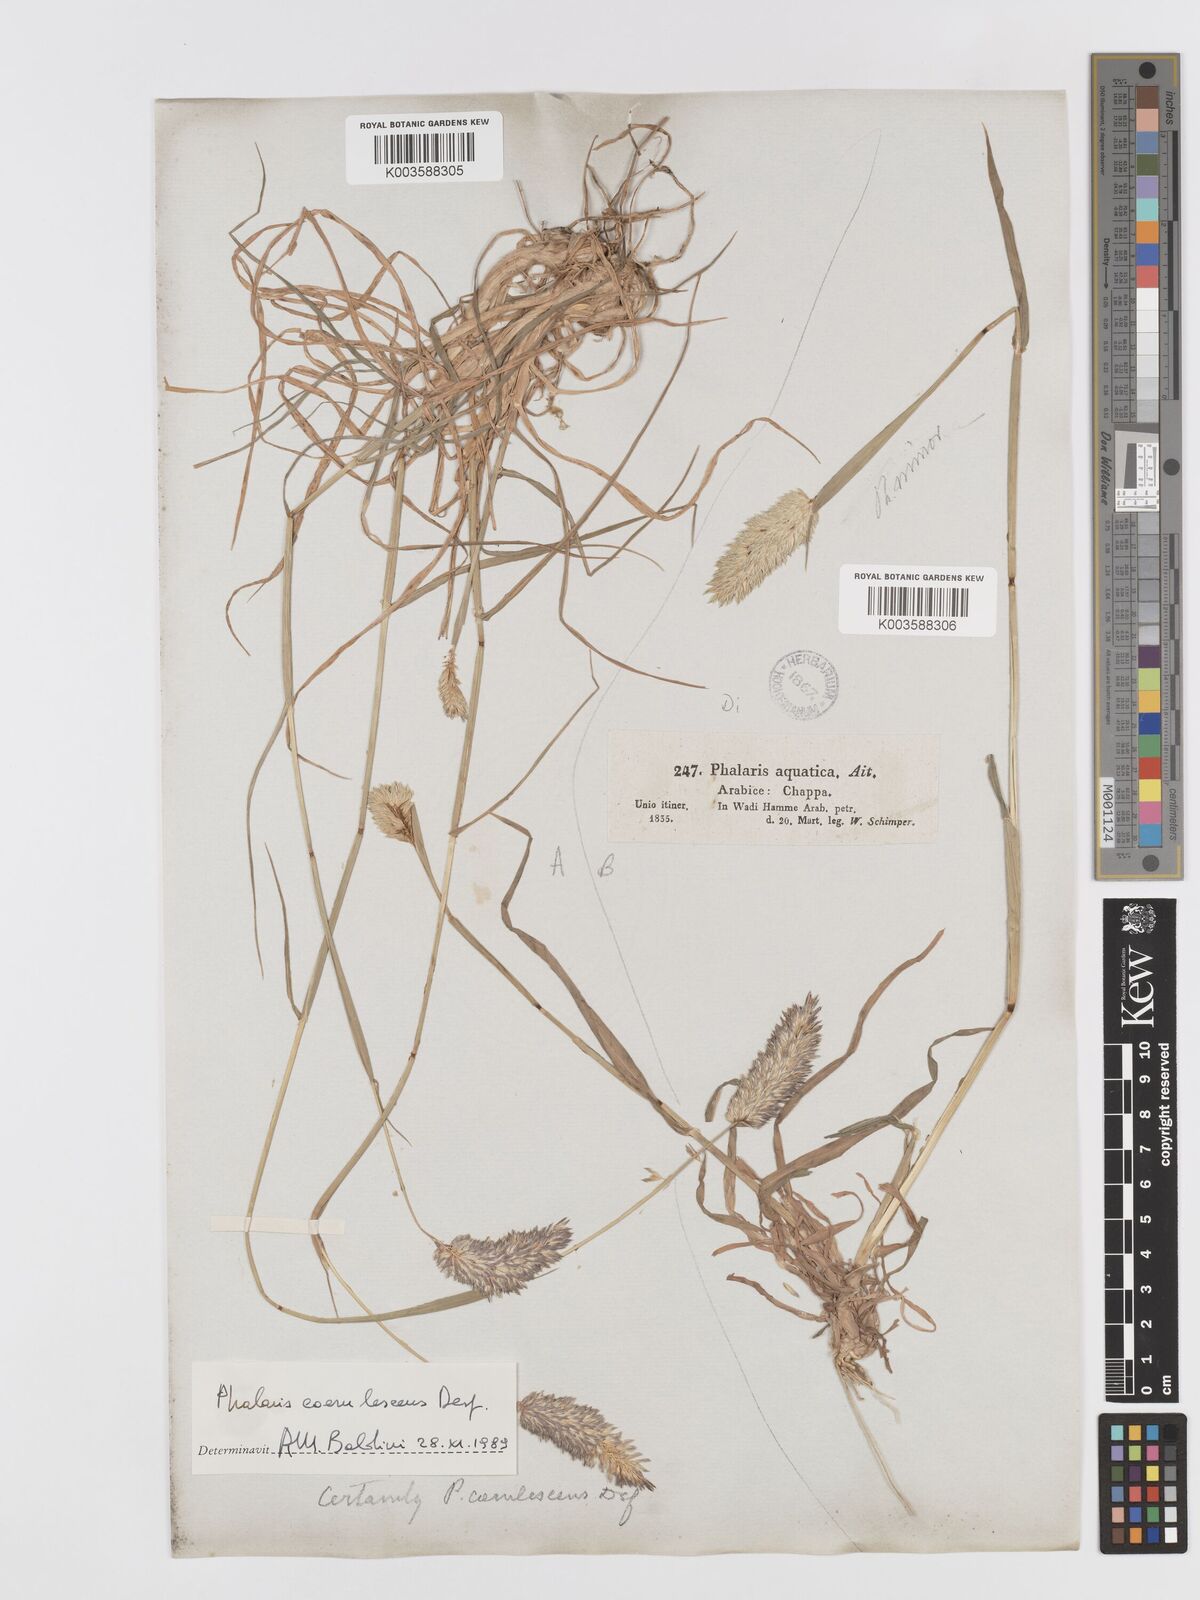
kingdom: Plantae
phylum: Tracheophyta
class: Liliopsida
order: Poales
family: Poaceae
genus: Phalaris
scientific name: Phalaris coerulescens
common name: Sunolgrass
